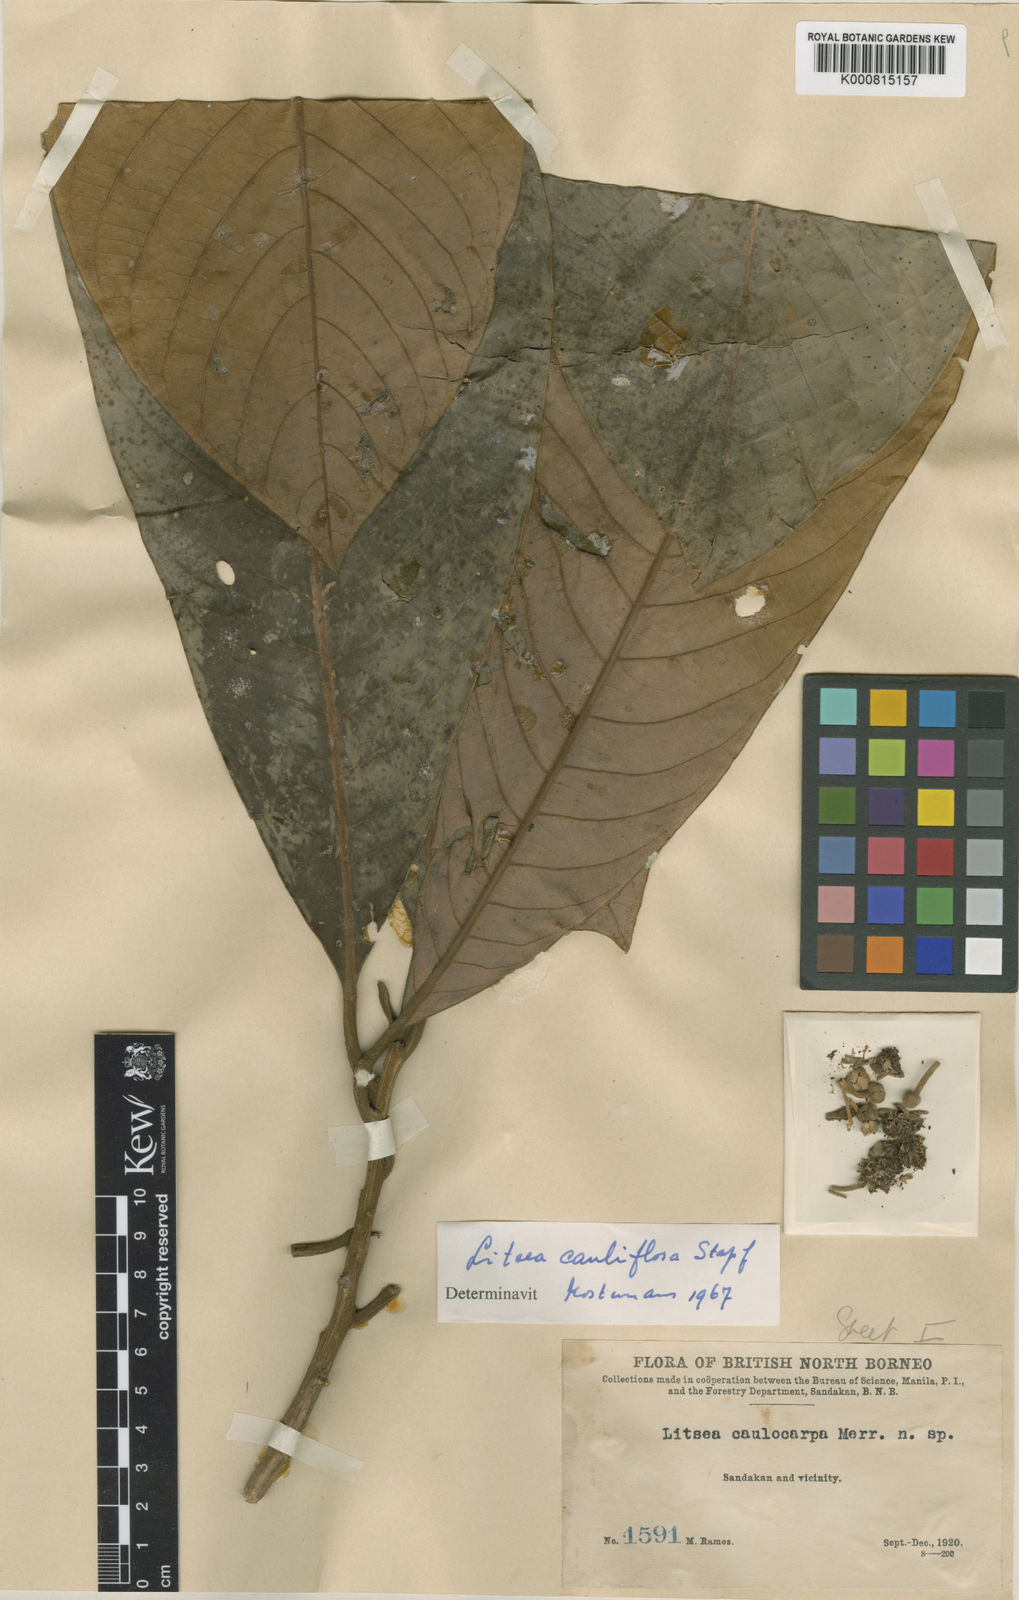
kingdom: Plantae
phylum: Tracheophyta
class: Magnoliopsida
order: Laurales
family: Lauraceae
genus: Litsea
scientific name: Litsea cauliflora
